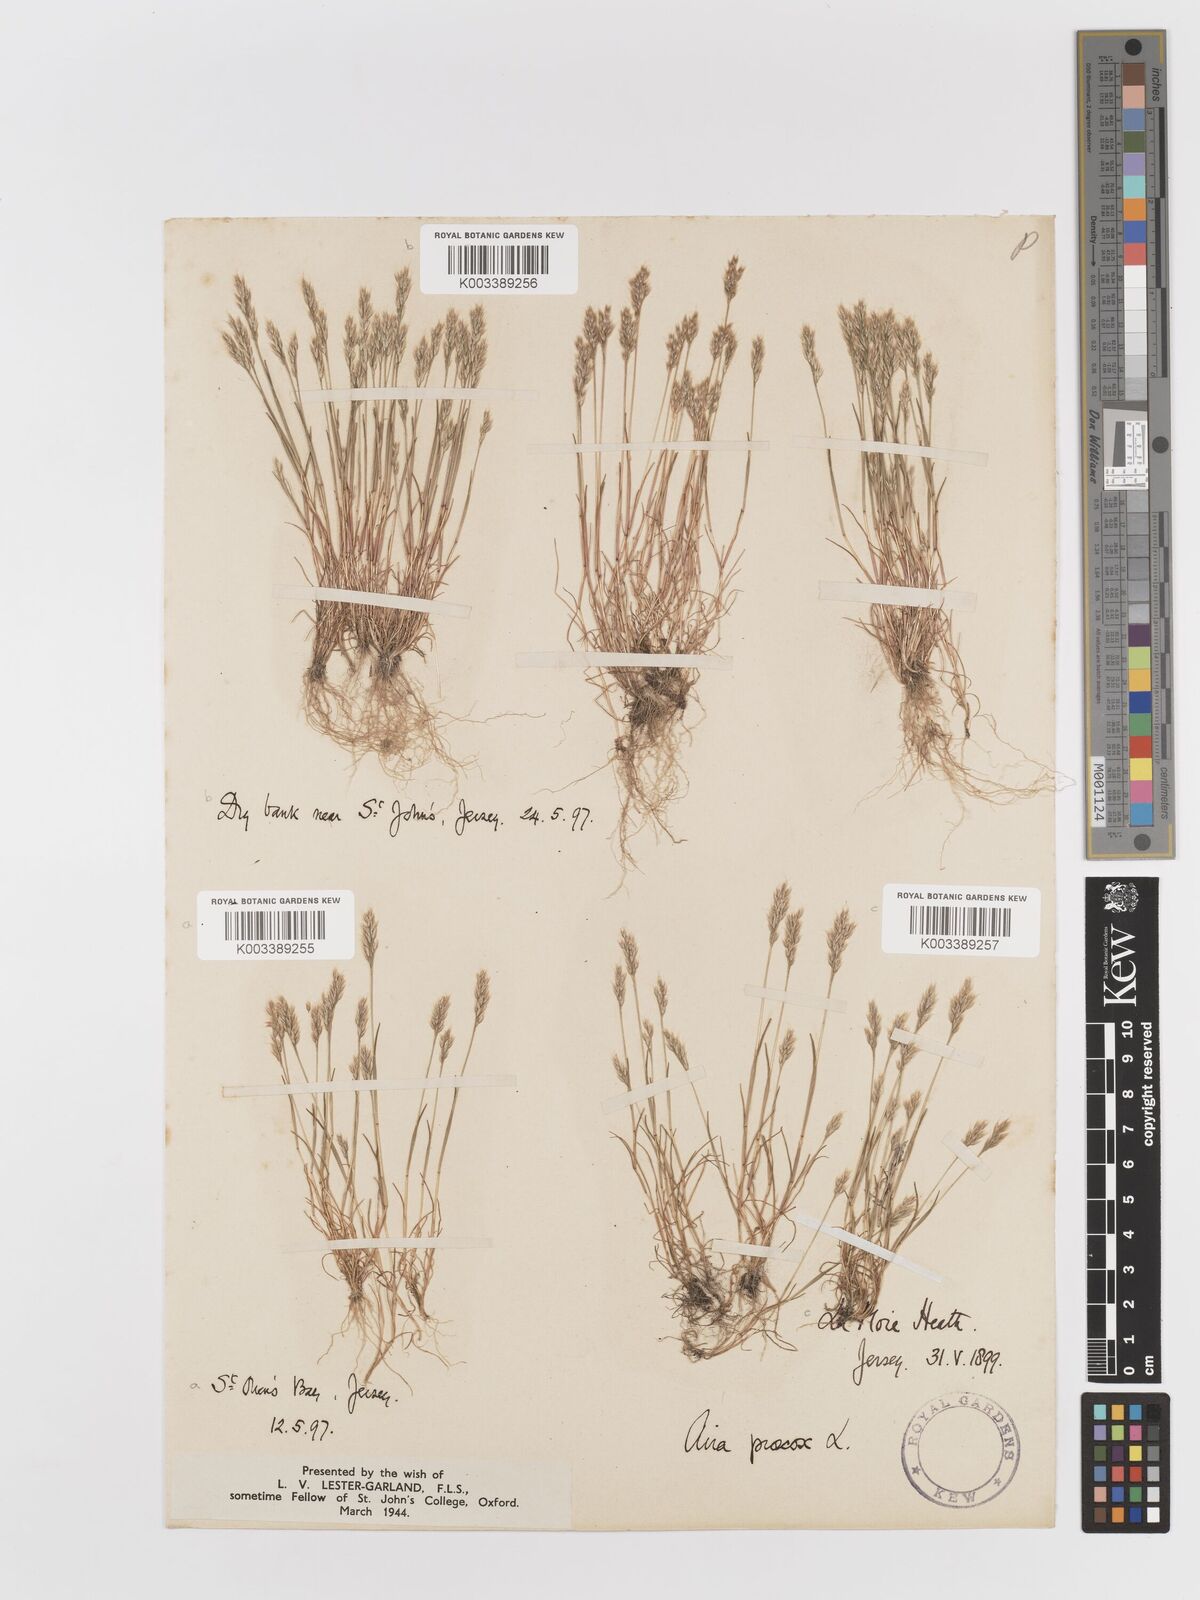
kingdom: Plantae
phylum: Tracheophyta
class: Liliopsida
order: Poales
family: Poaceae
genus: Aira
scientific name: Aira praecox
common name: Early hair-grass
